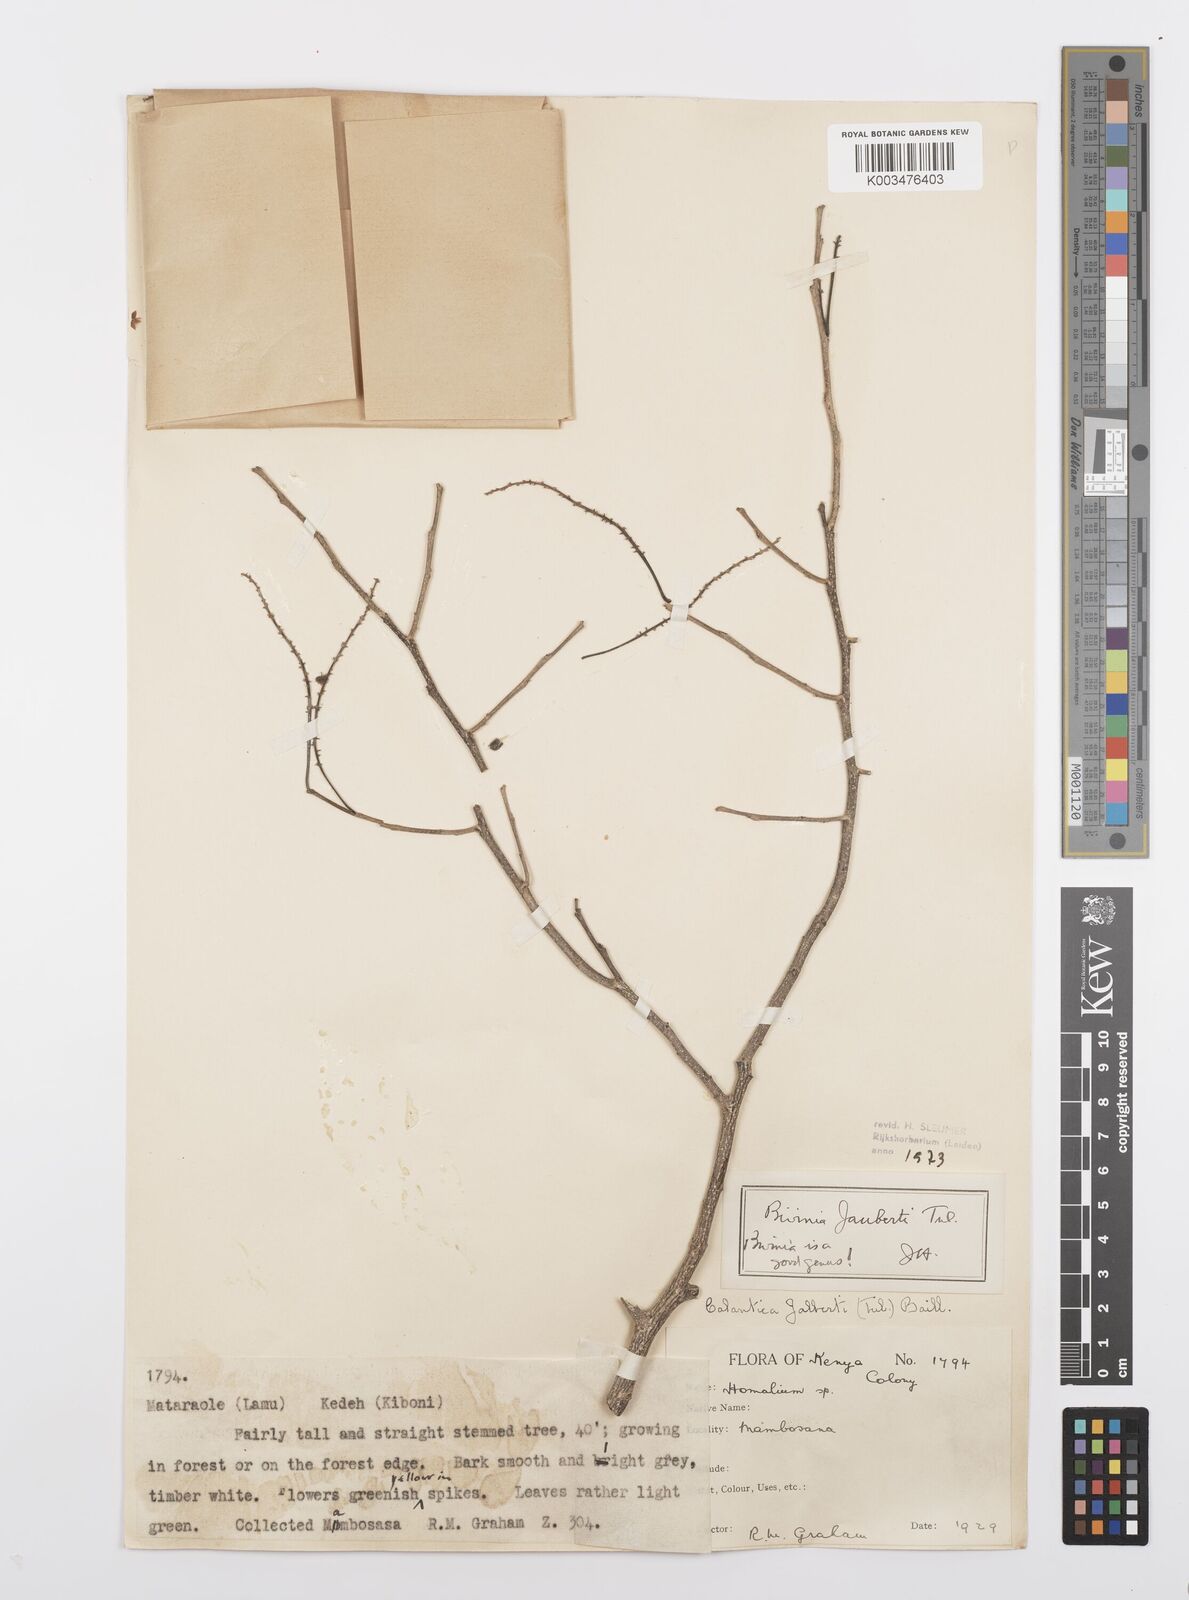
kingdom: Plantae
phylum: Tracheophyta
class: Magnoliopsida
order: Malpighiales
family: Salicaceae
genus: Bivinia
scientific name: Bivinia jalbertii
